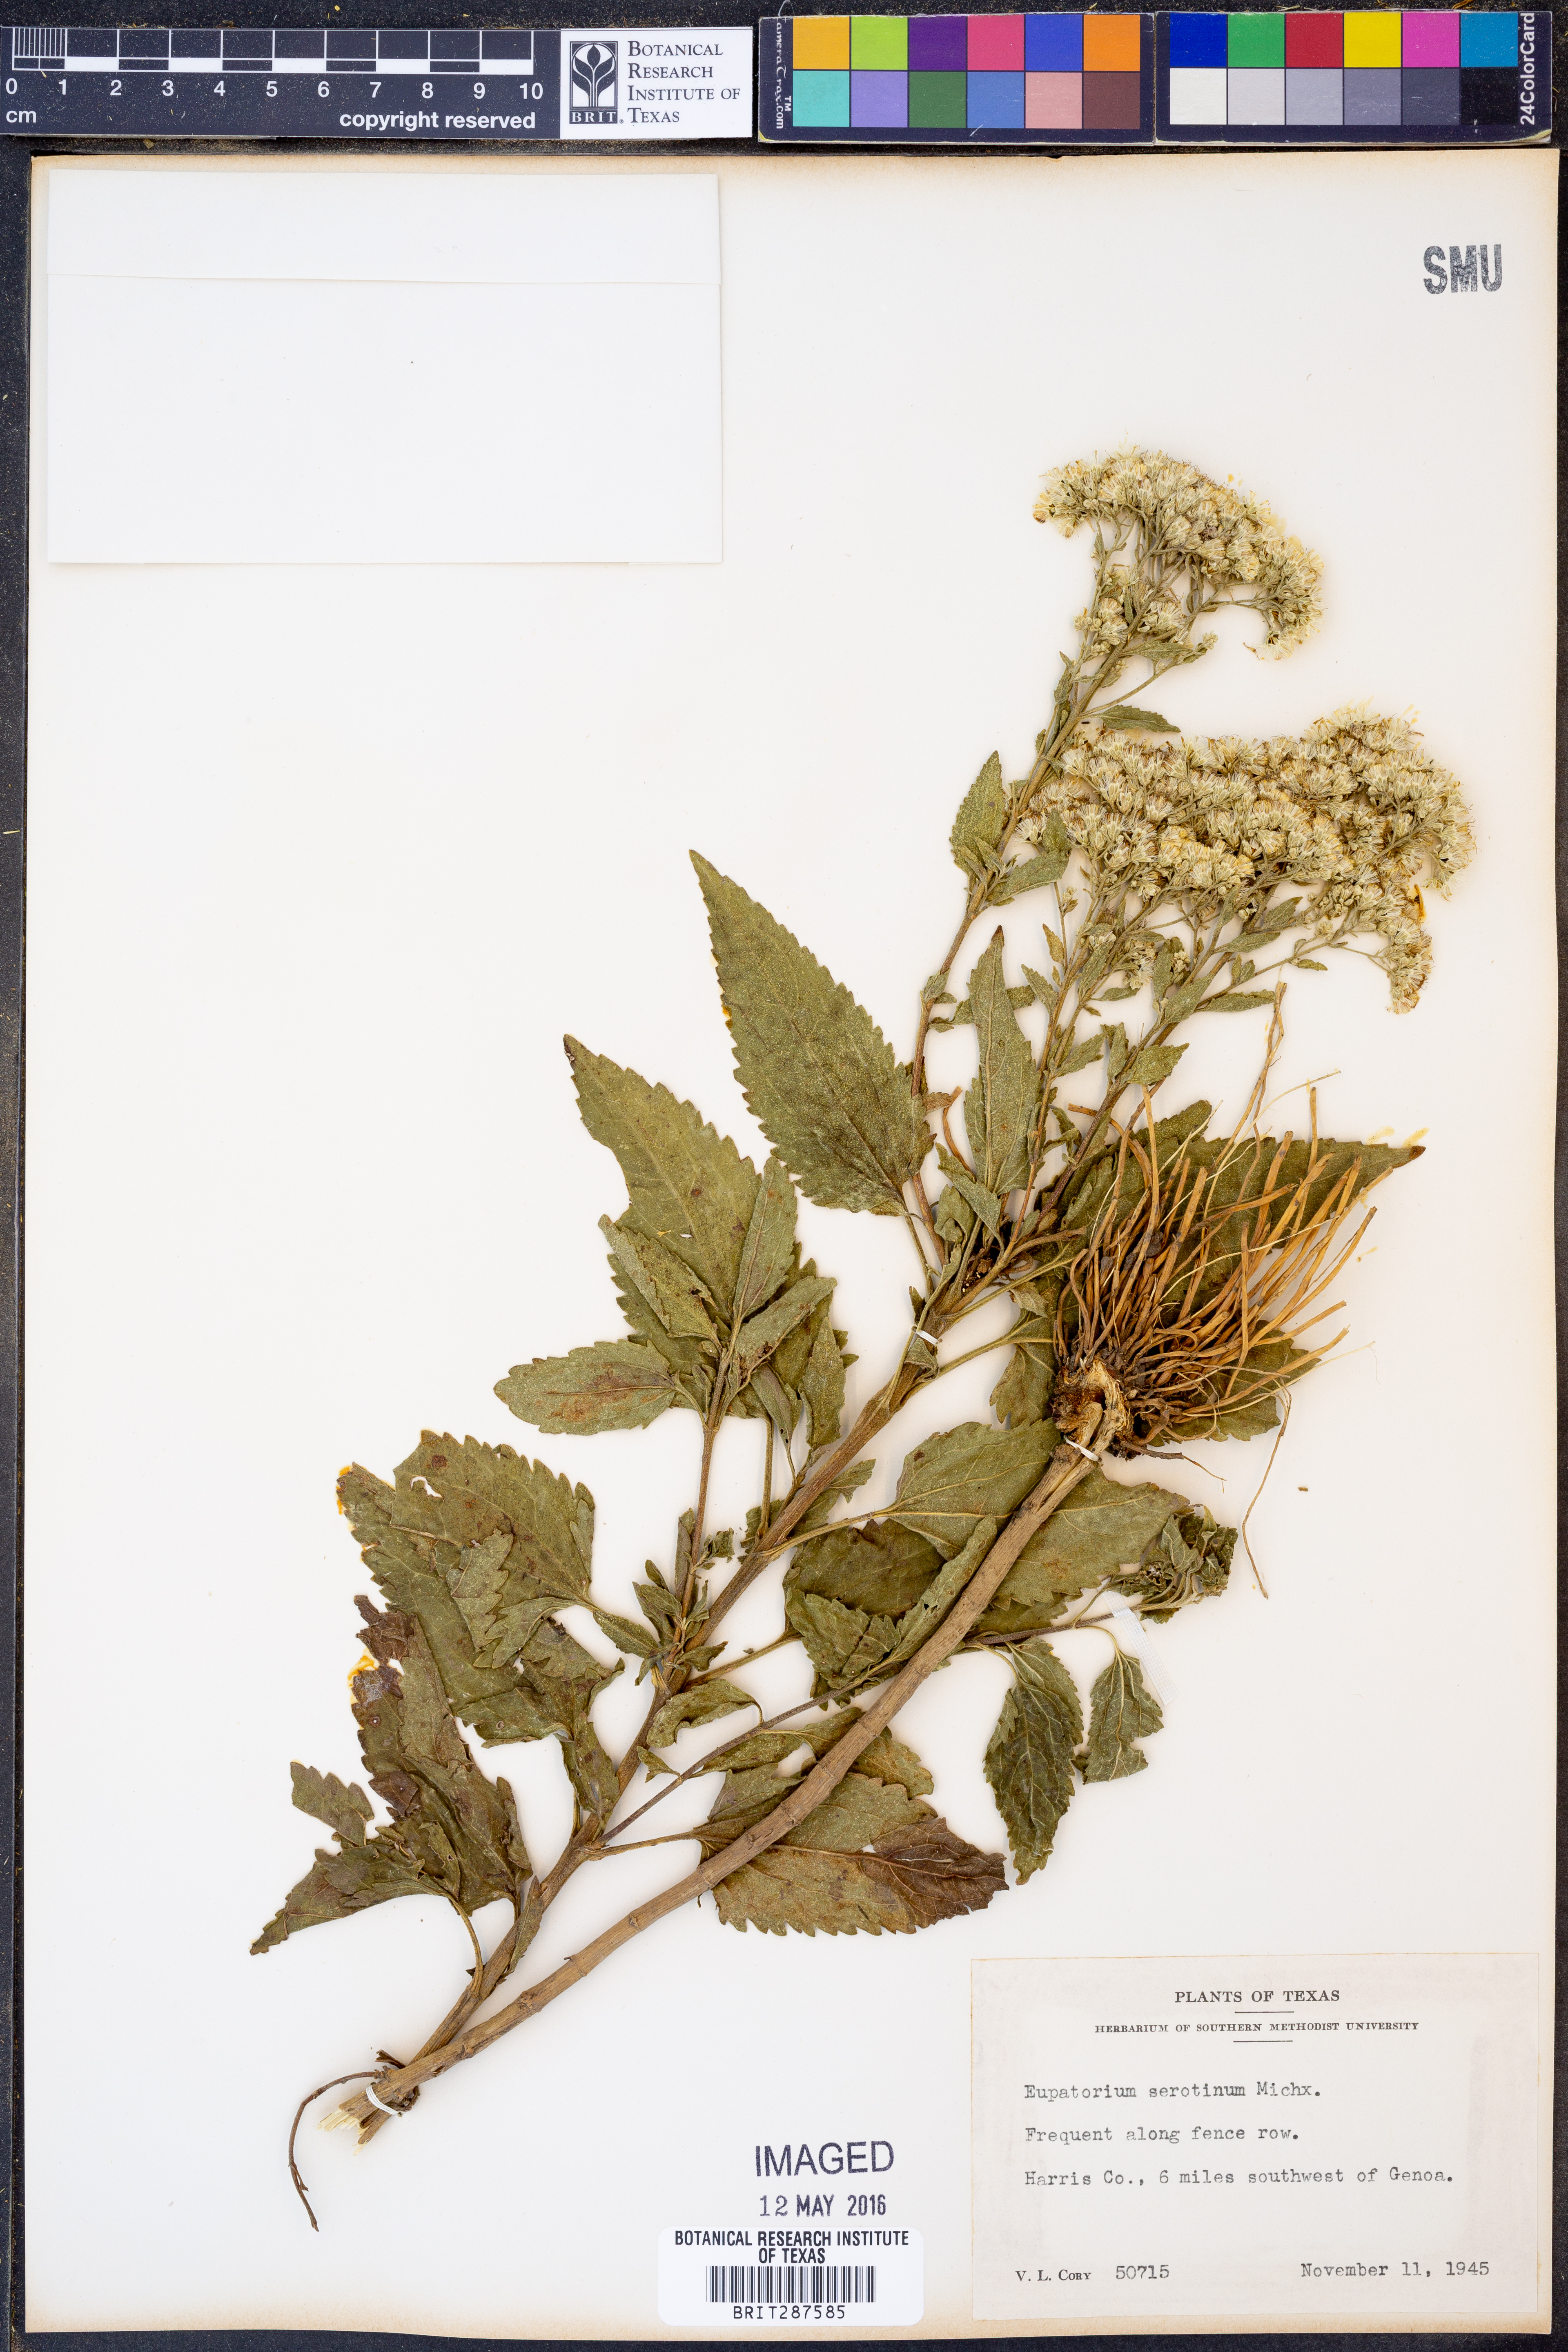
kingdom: Plantae
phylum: Tracheophyta
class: Magnoliopsida
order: Asterales
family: Asteraceae
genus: Eupatorium
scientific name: Eupatorium serotinum
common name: Late boneset
